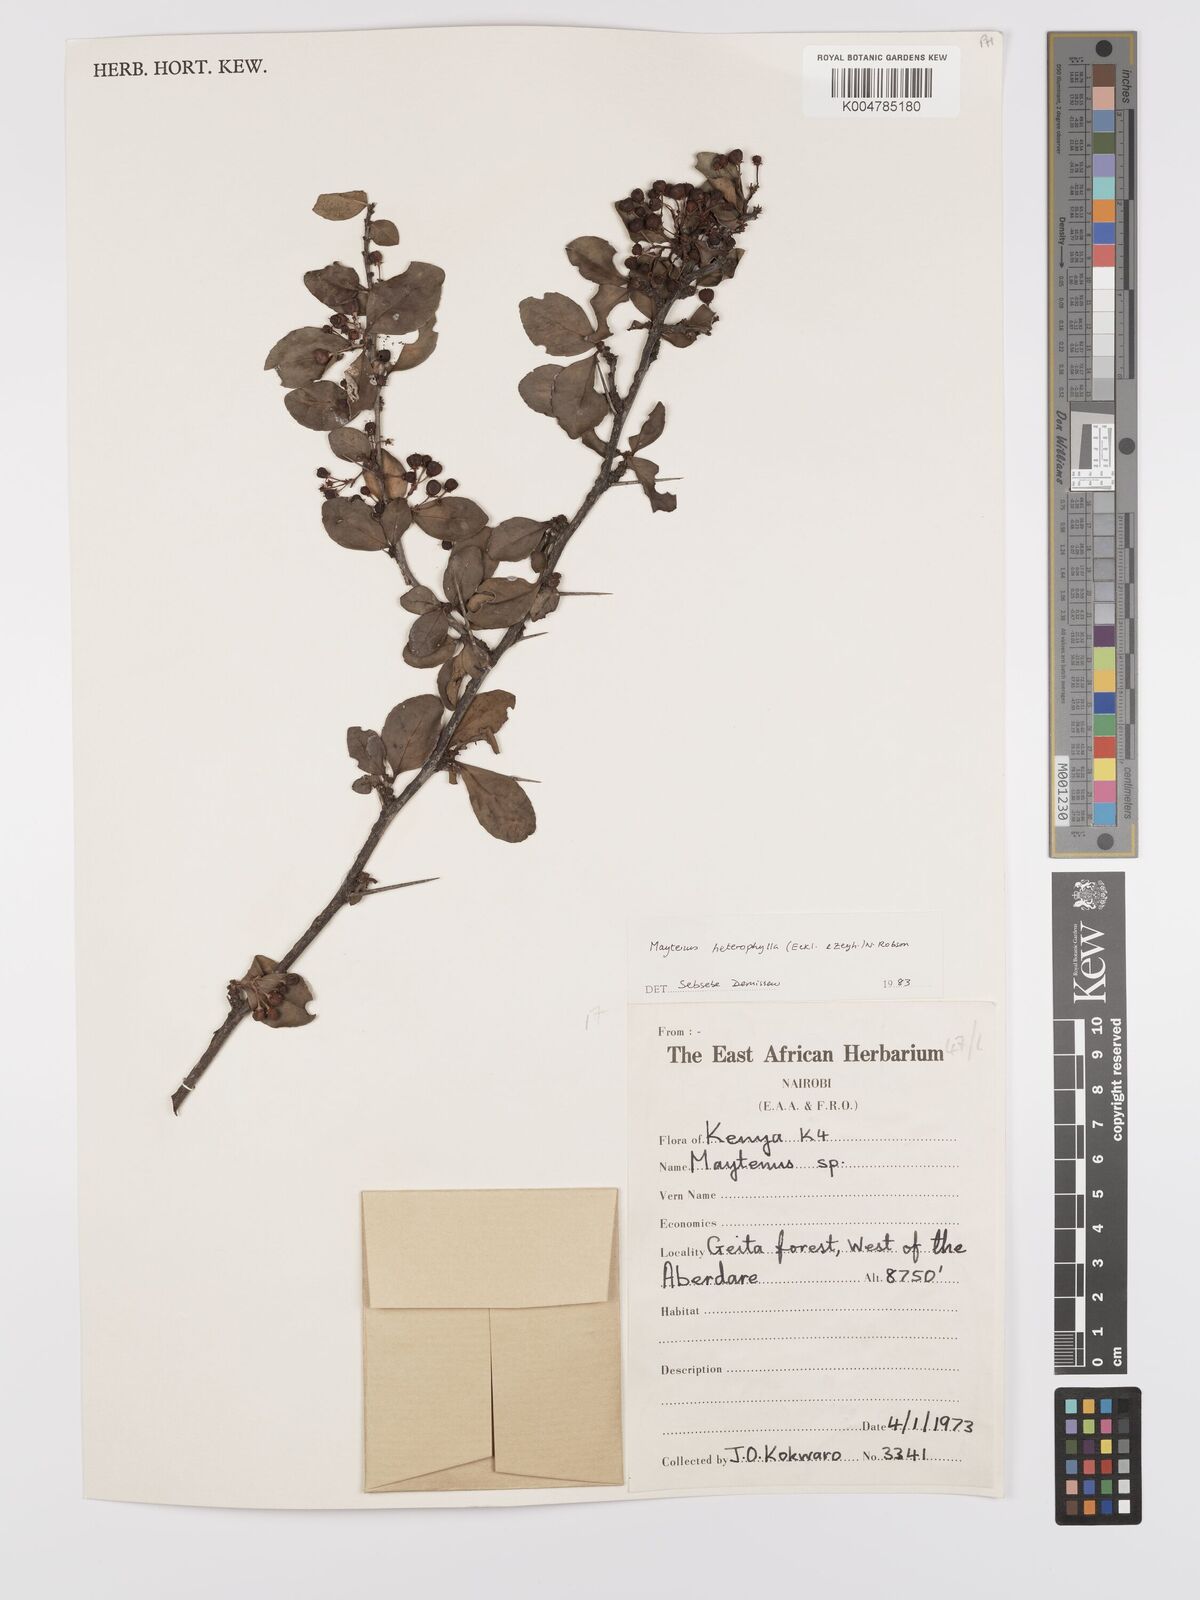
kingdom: Plantae
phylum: Tracheophyta
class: Magnoliopsida
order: Celastrales
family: Celastraceae
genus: Gymnosporia
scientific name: Gymnosporia heterophylla
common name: Angle-stem spikethorn
